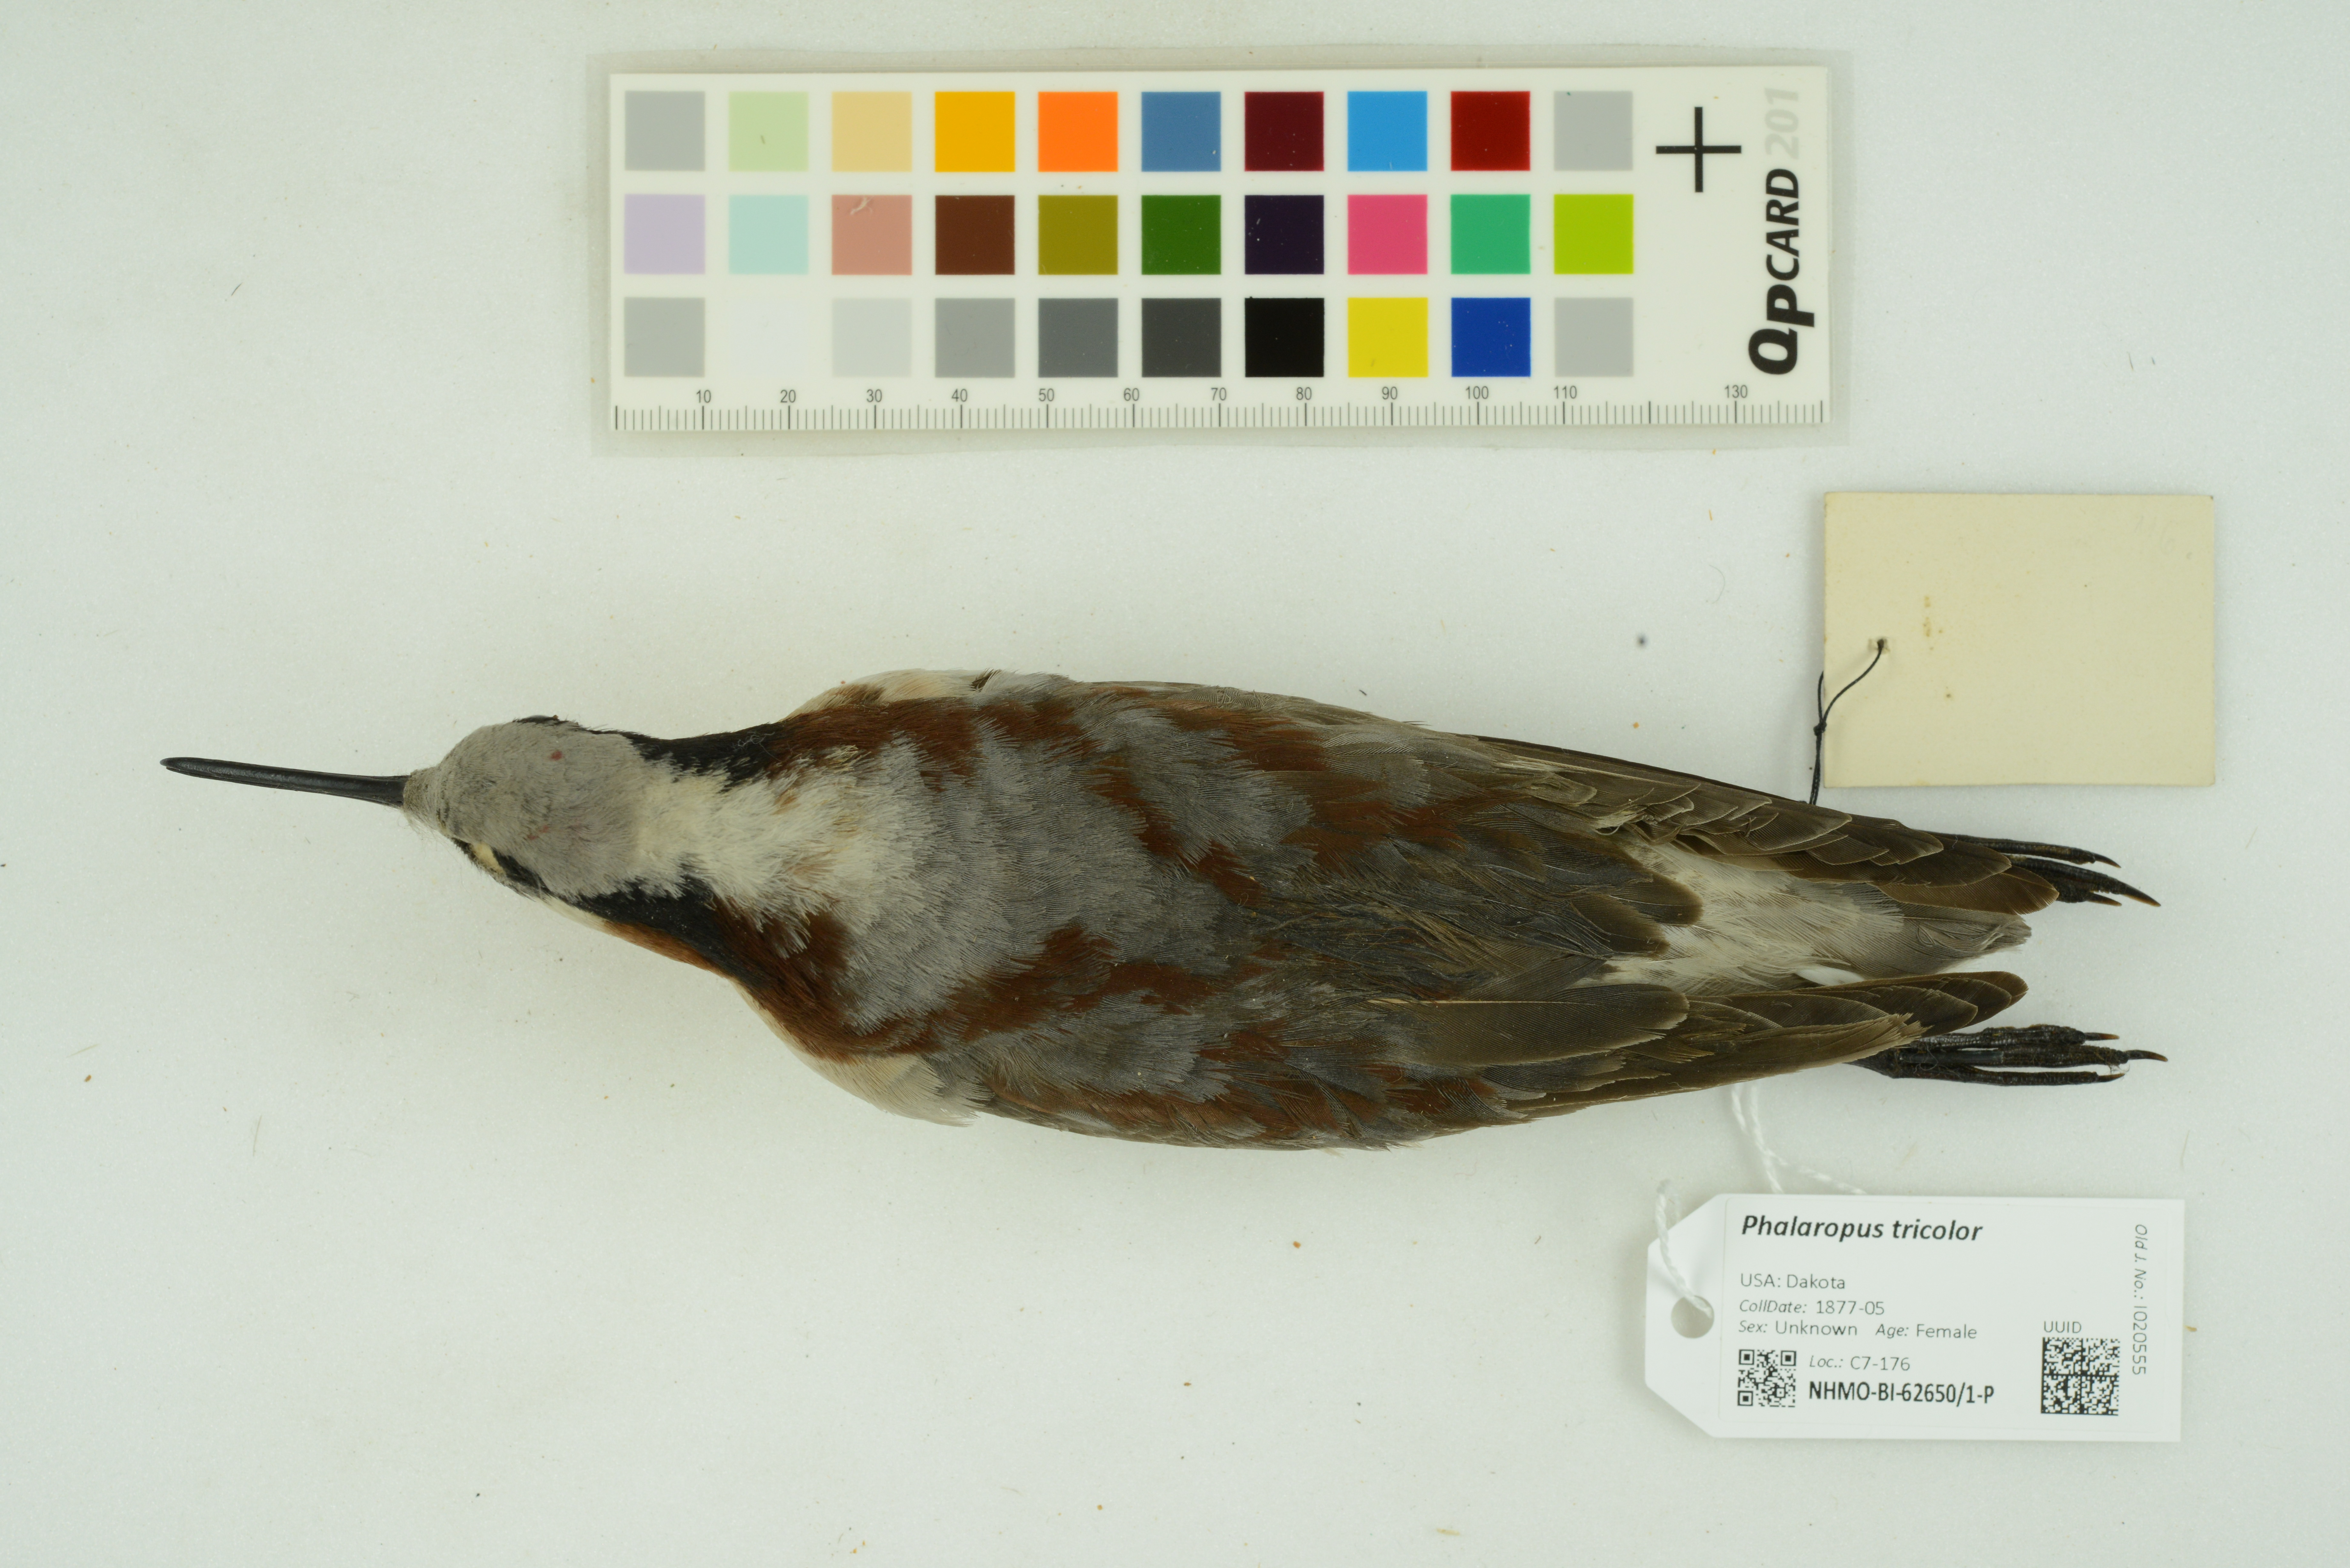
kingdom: Animalia
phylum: Chordata
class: Aves
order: Charadriiformes
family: Scolopacidae
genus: Phalaropus
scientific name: Phalaropus tricolor
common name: Wilson's phalarope
